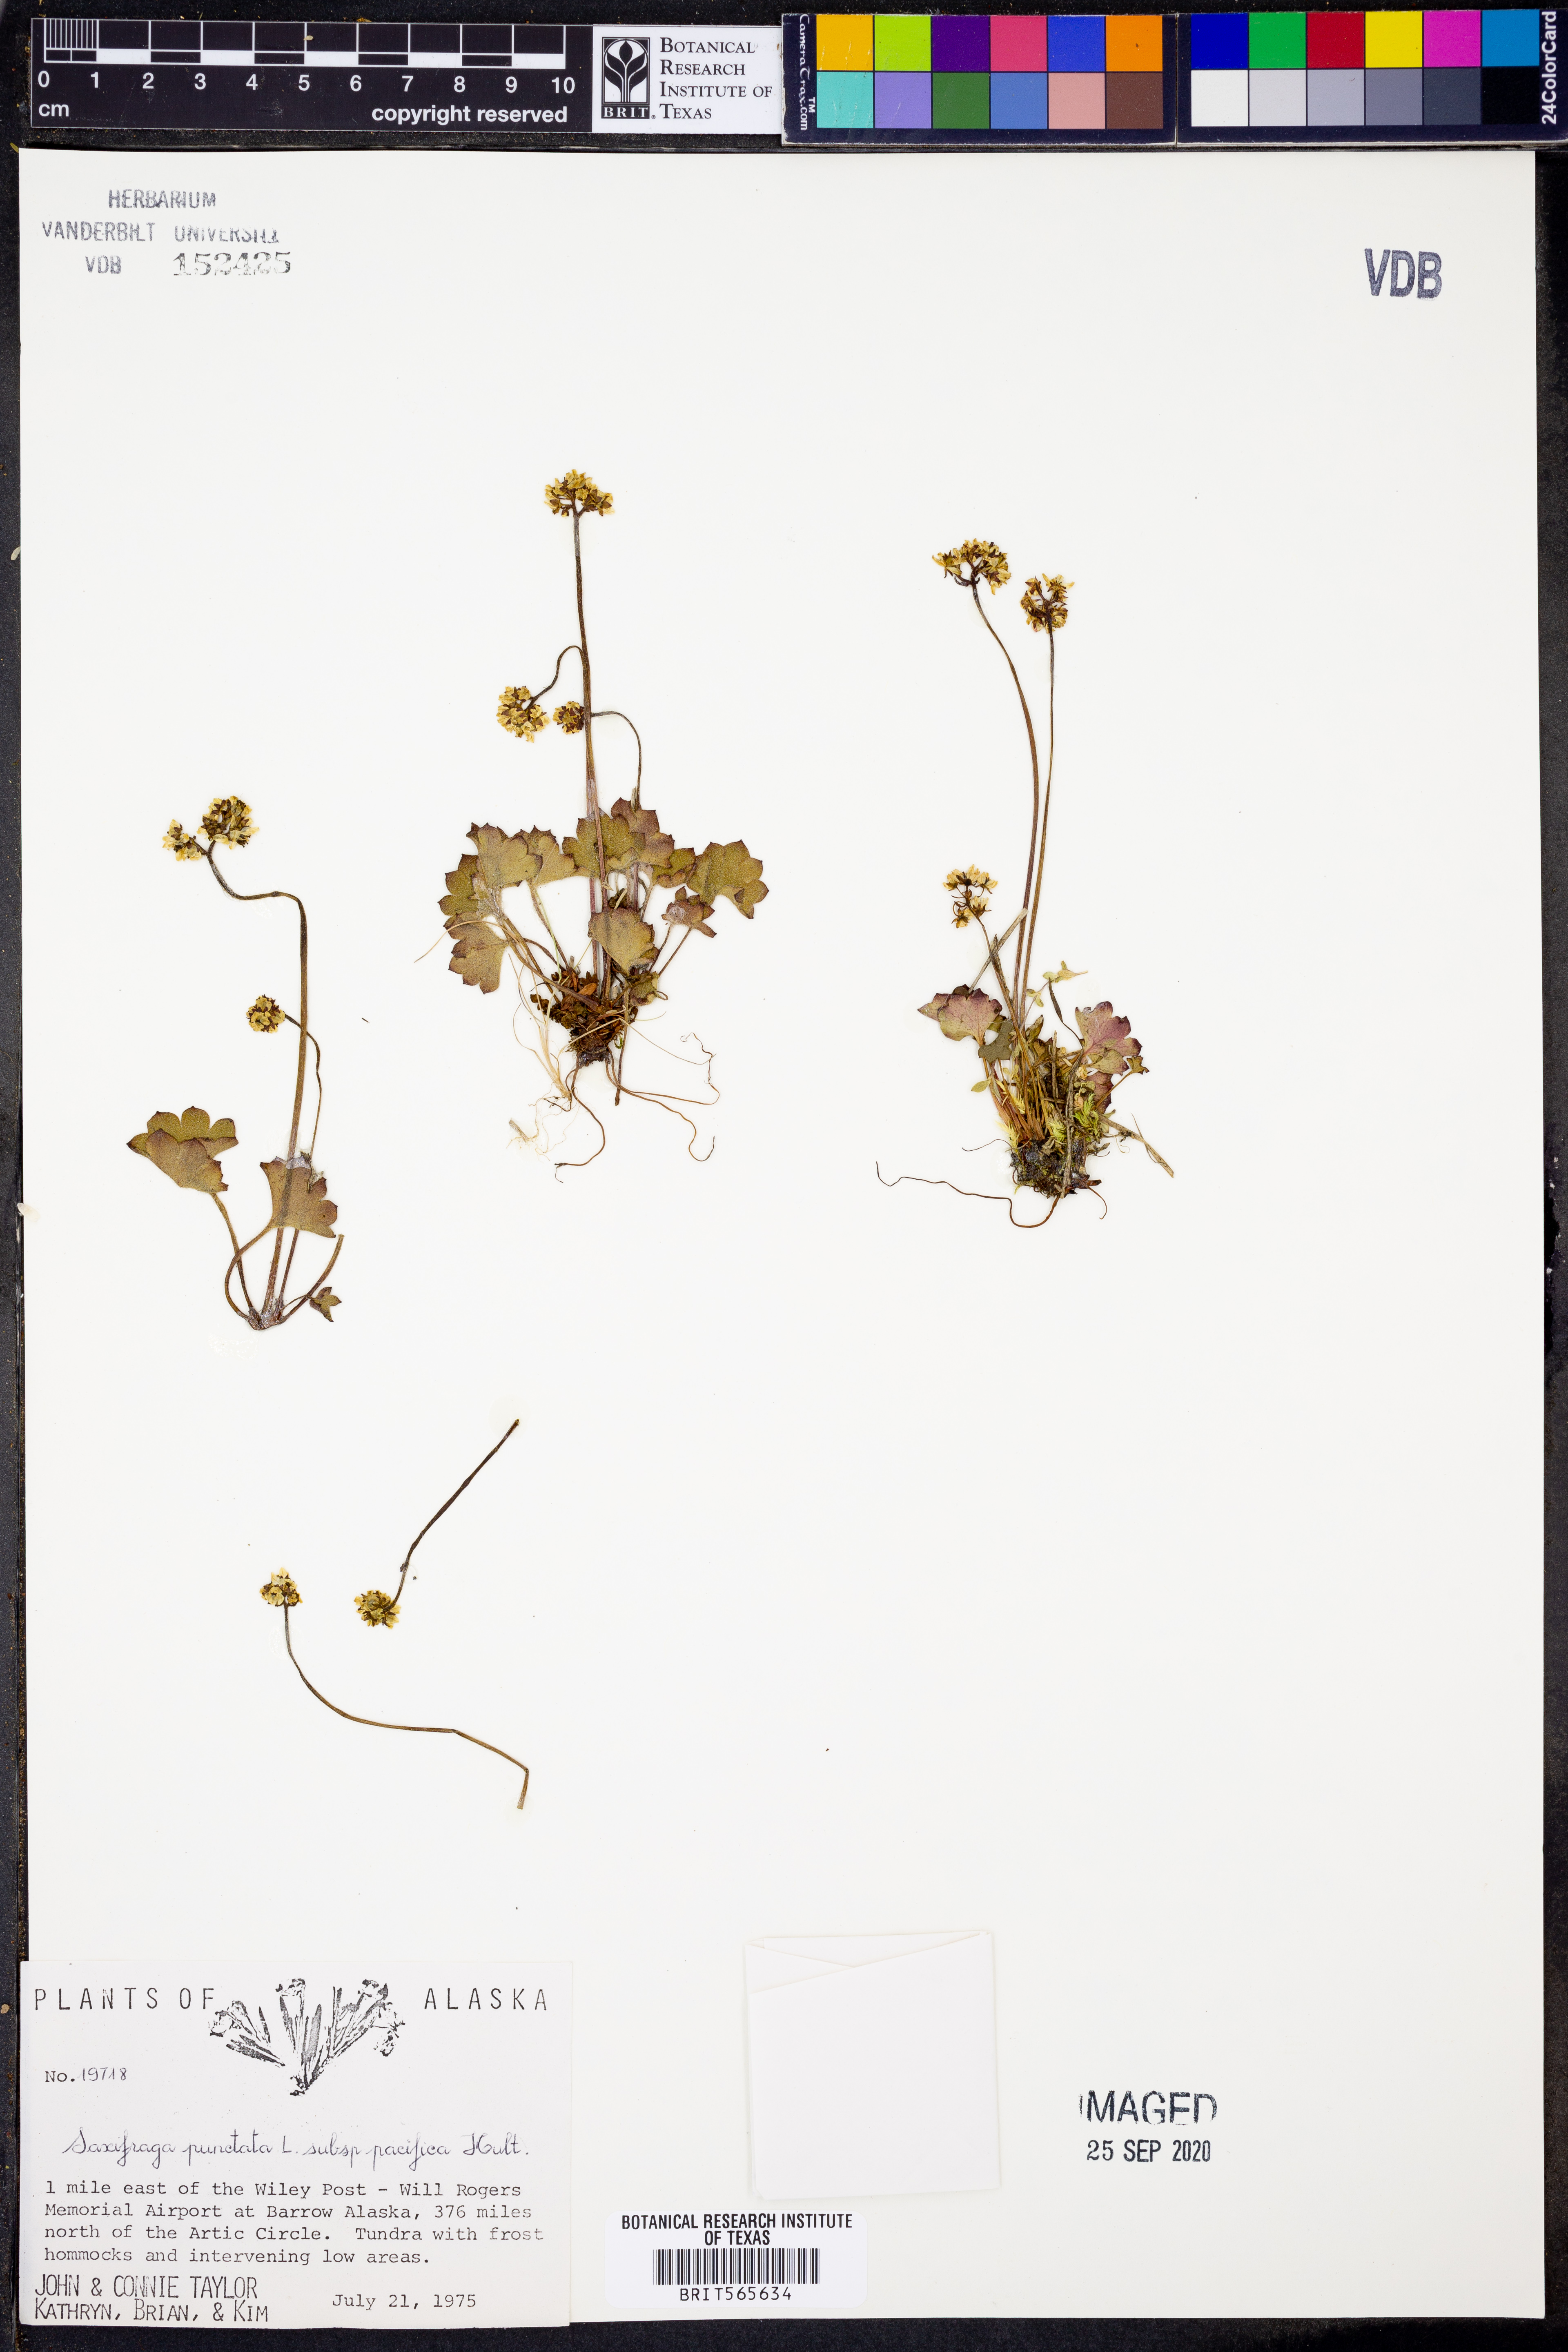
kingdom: Plantae
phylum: Tracheophyta
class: Magnoliopsida
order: Saxifragales
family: Saxifragaceae
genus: Micranthes
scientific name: Micranthes nelsoniana
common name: Nelson's saxifrage
